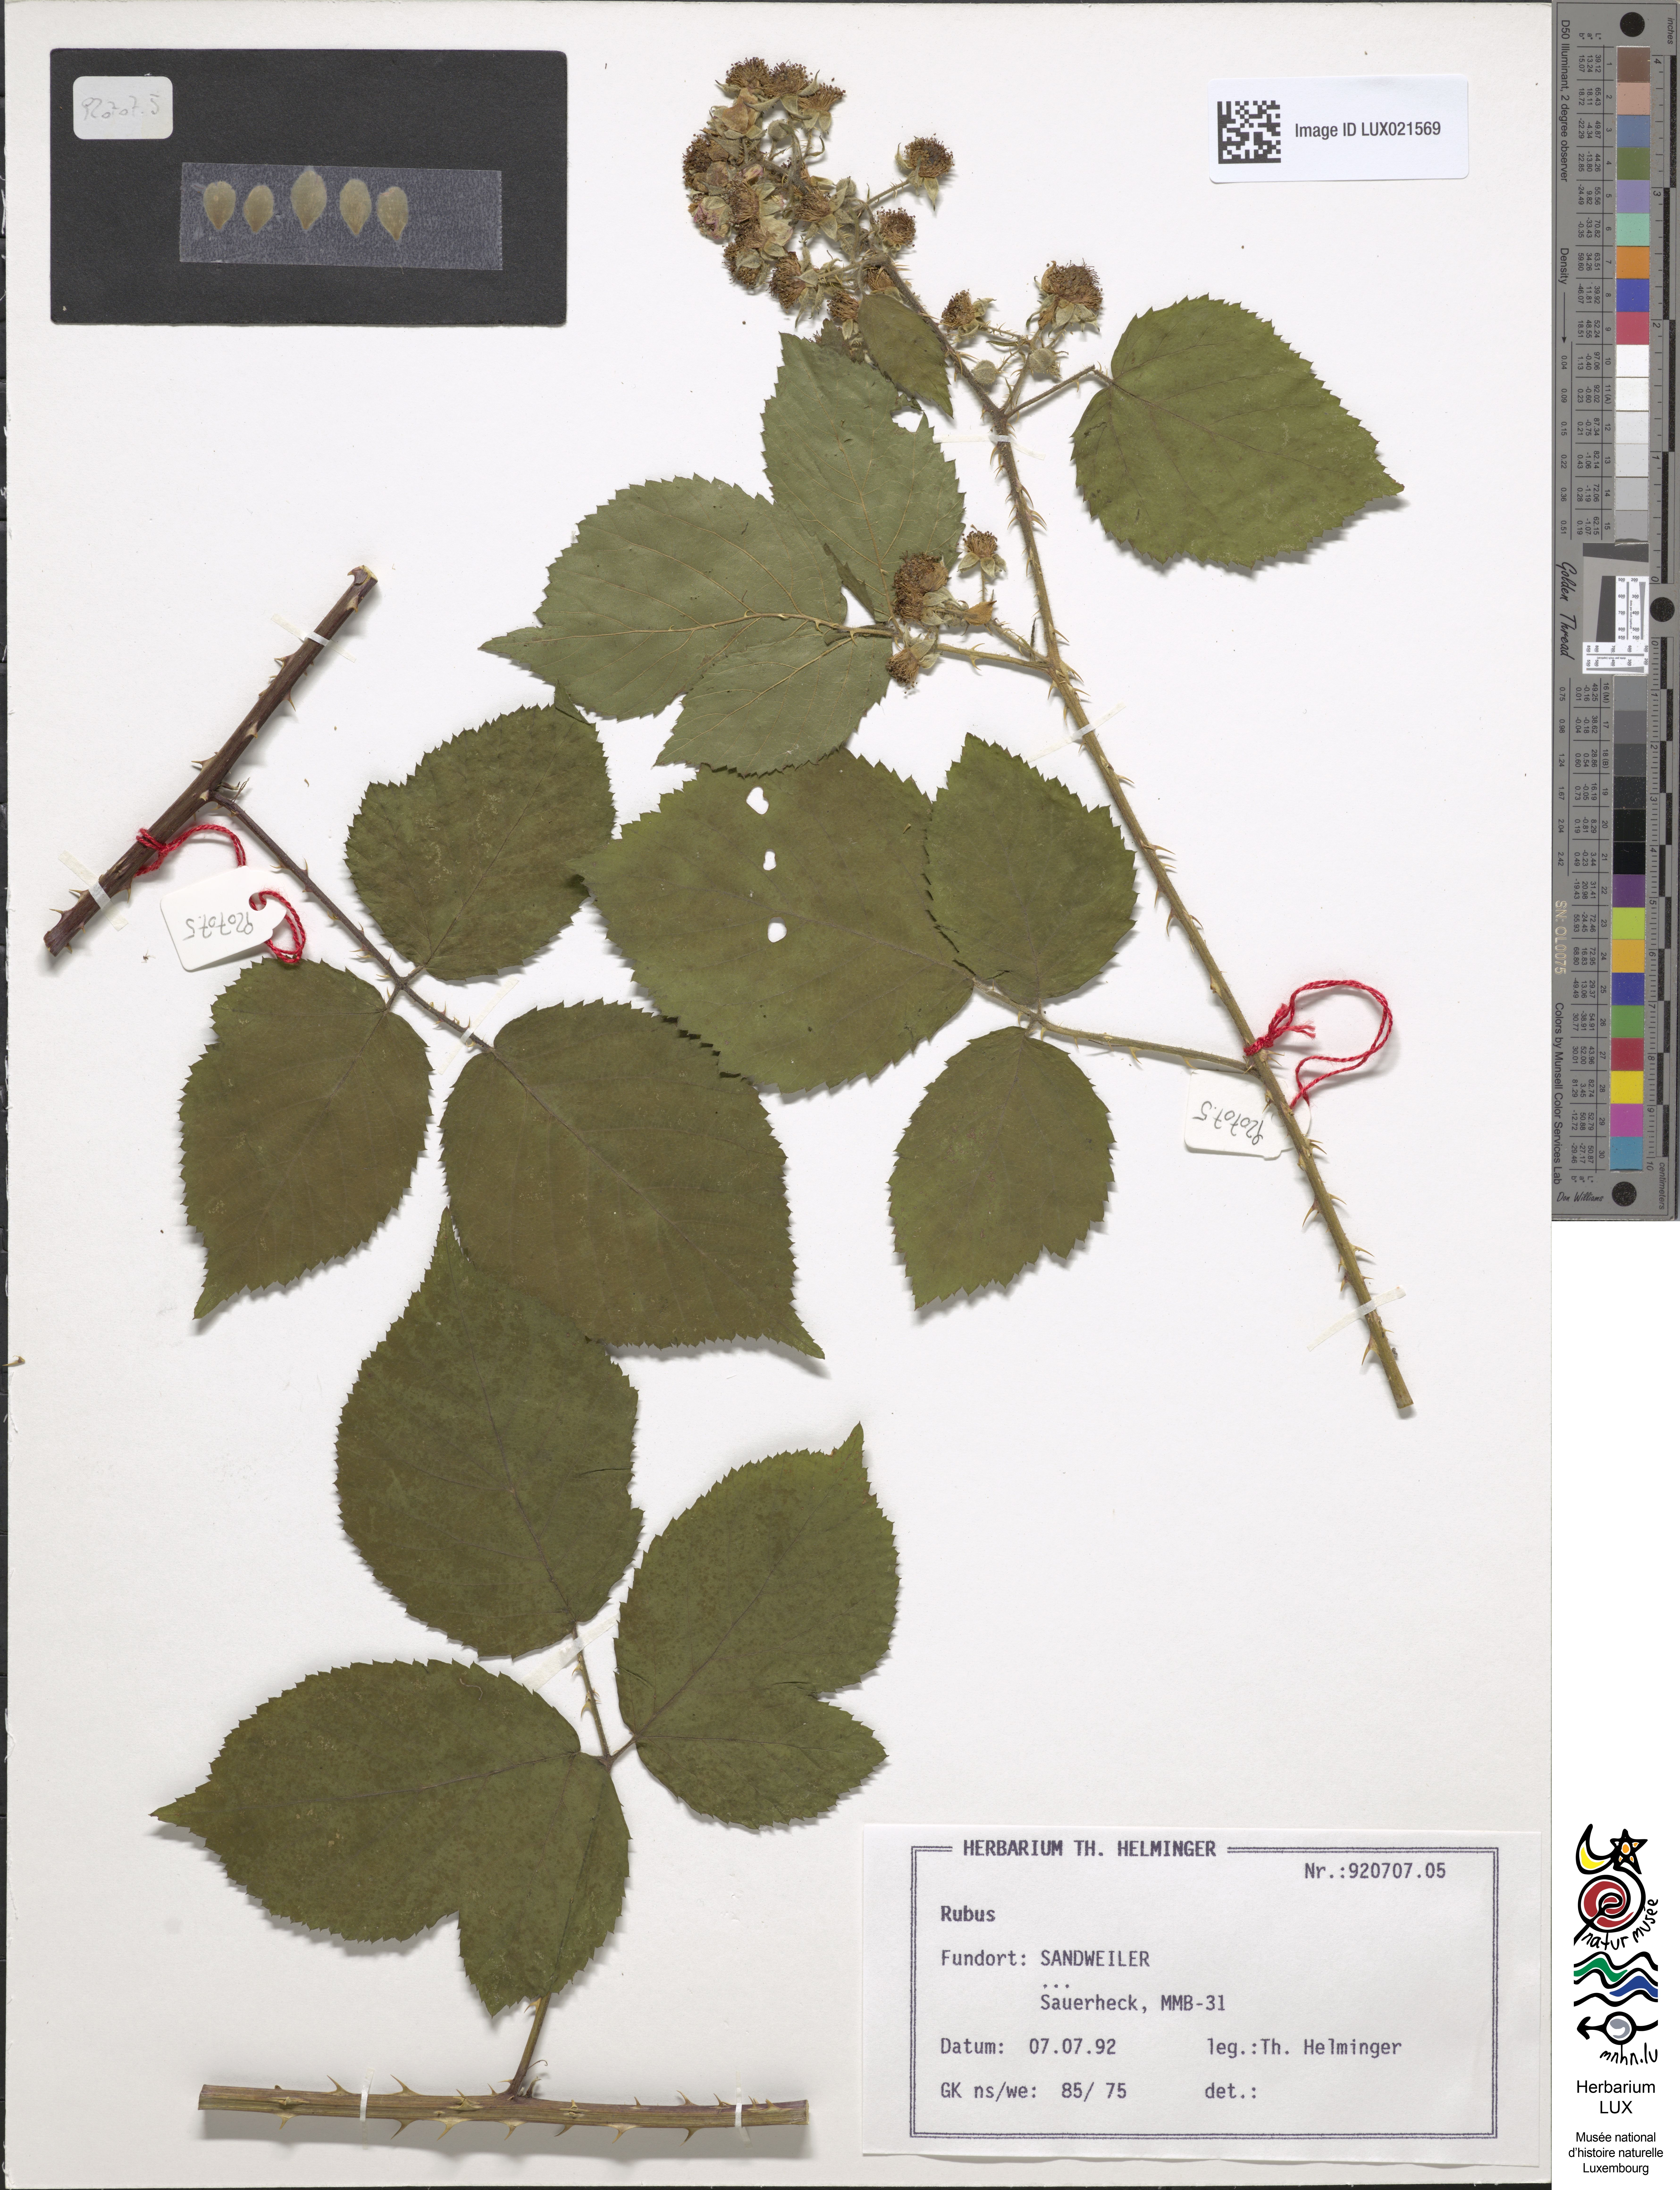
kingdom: Plantae
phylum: Tracheophyta
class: Magnoliopsida
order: Rosales
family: Rosaceae
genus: Rubus
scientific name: Rubus
